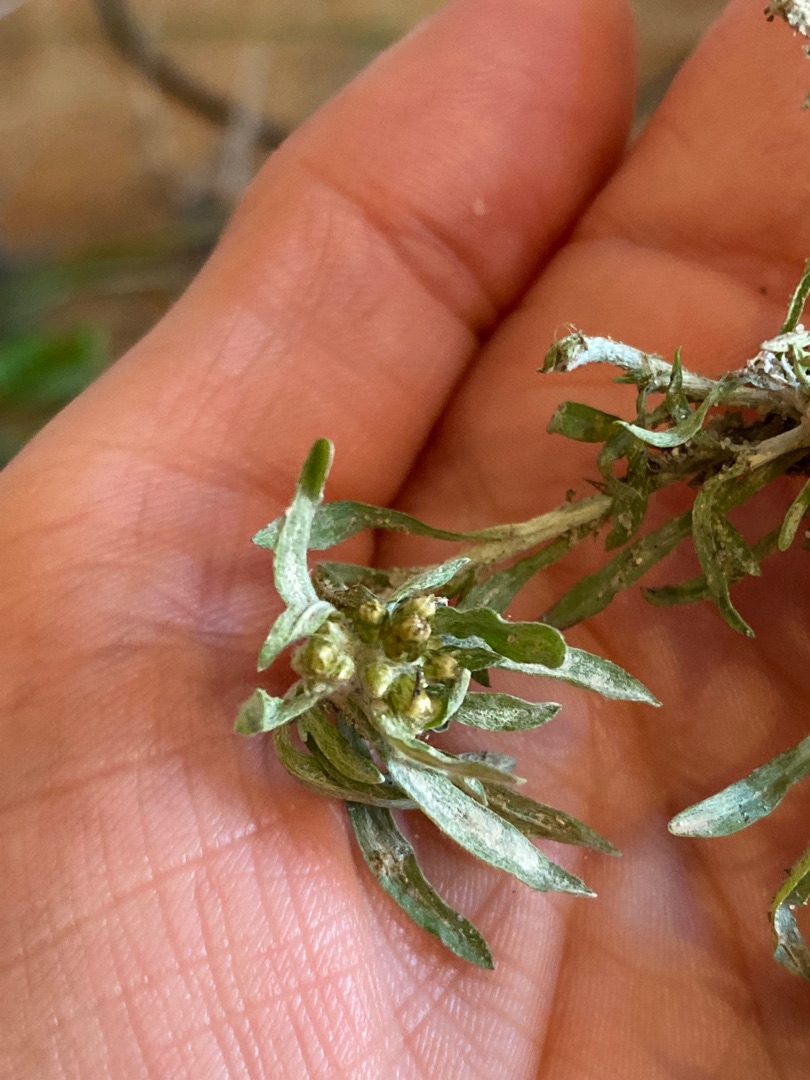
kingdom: Plantae
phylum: Tracheophyta
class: Magnoliopsida
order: Asterales
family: Asteraceae
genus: Gnaphalium
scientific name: Gnaphalium uliginosum
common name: Sump-evighedsblomst
